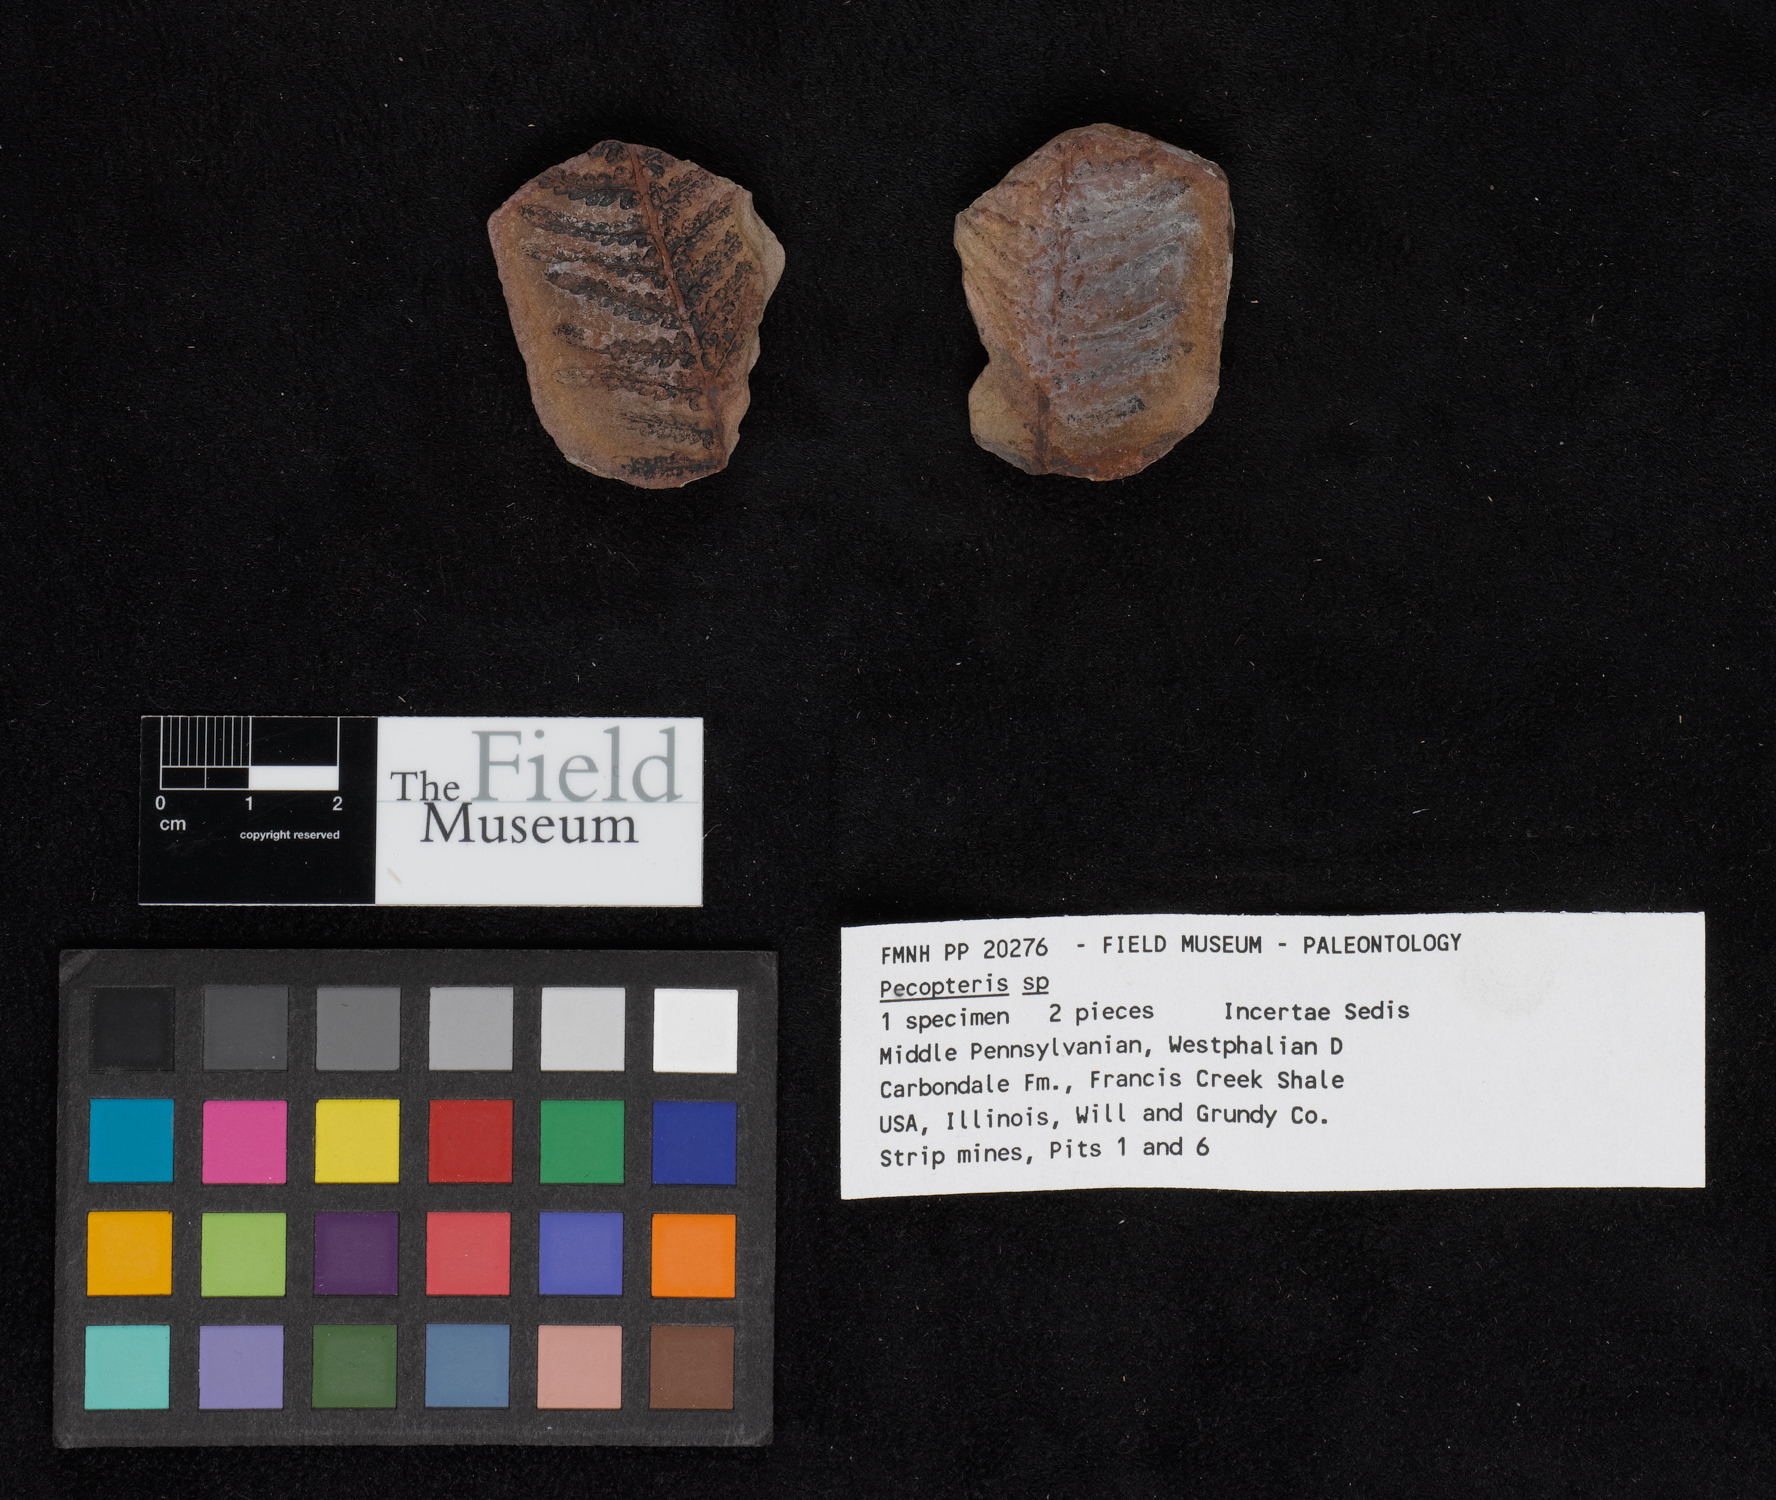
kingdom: Plantae
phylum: Tracheophyta
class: Polypodiopsida
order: Marattiales
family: Asterothecaceae
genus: Pecopteris
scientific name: Pecopteris
